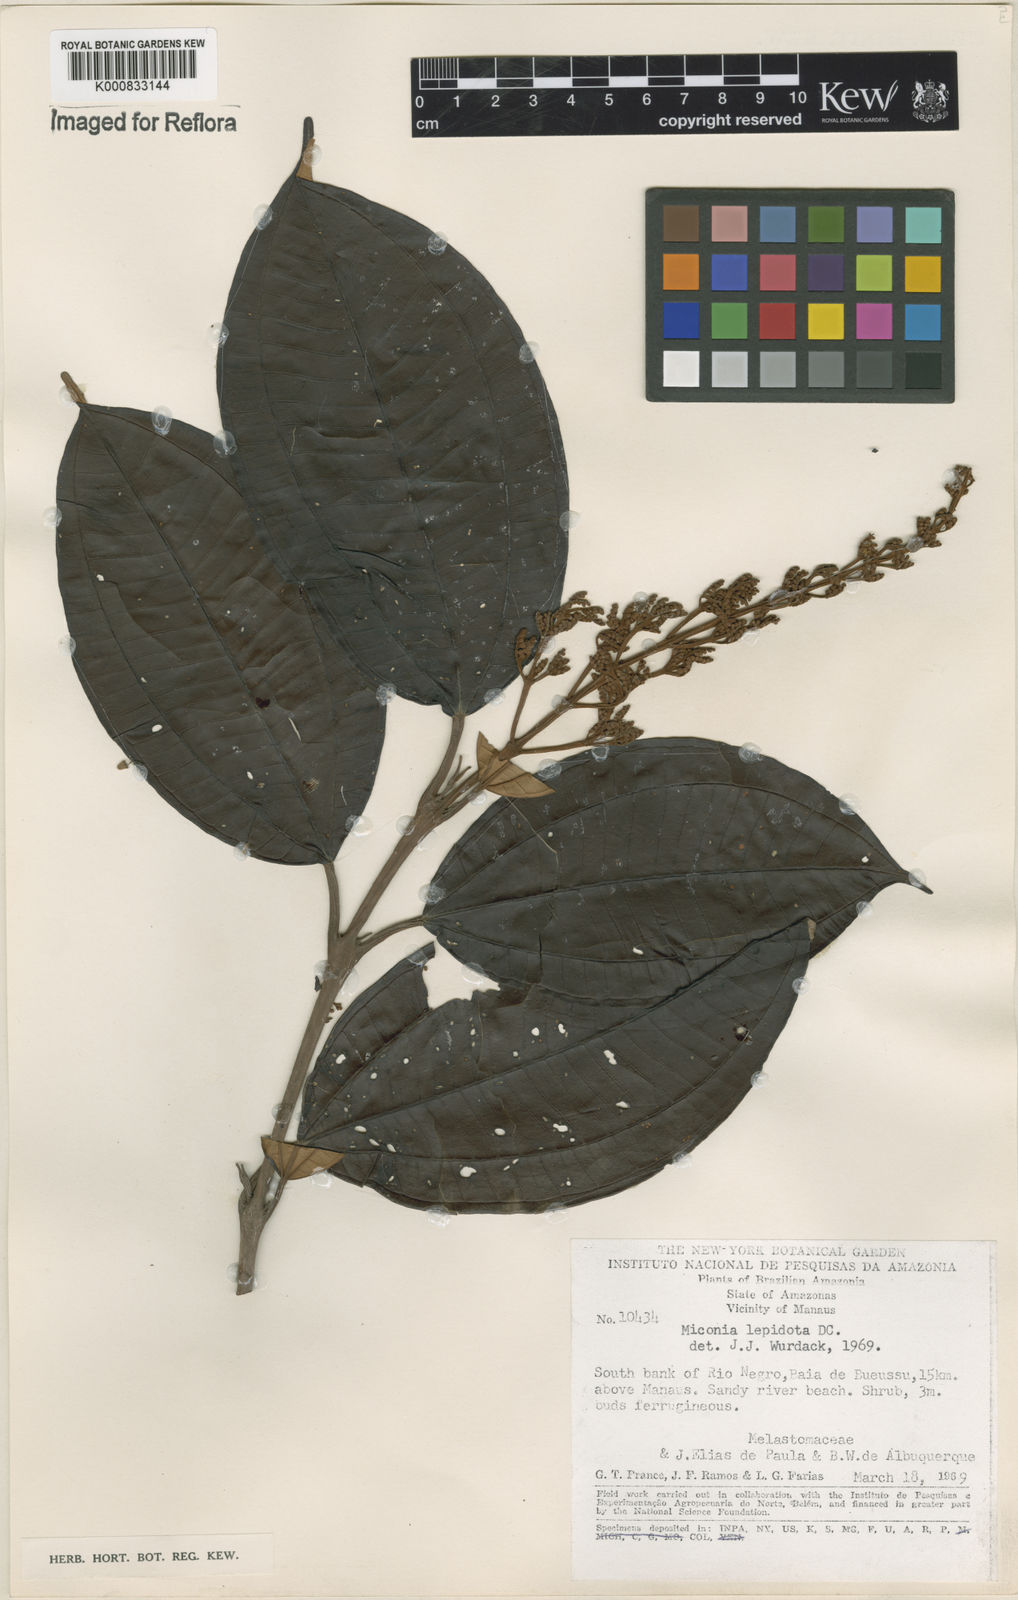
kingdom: Plantae
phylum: Tracheophyta
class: Magnoliopsida
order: Myrtales
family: Melastomataceae
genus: Miconia
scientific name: Miconia lepidota
